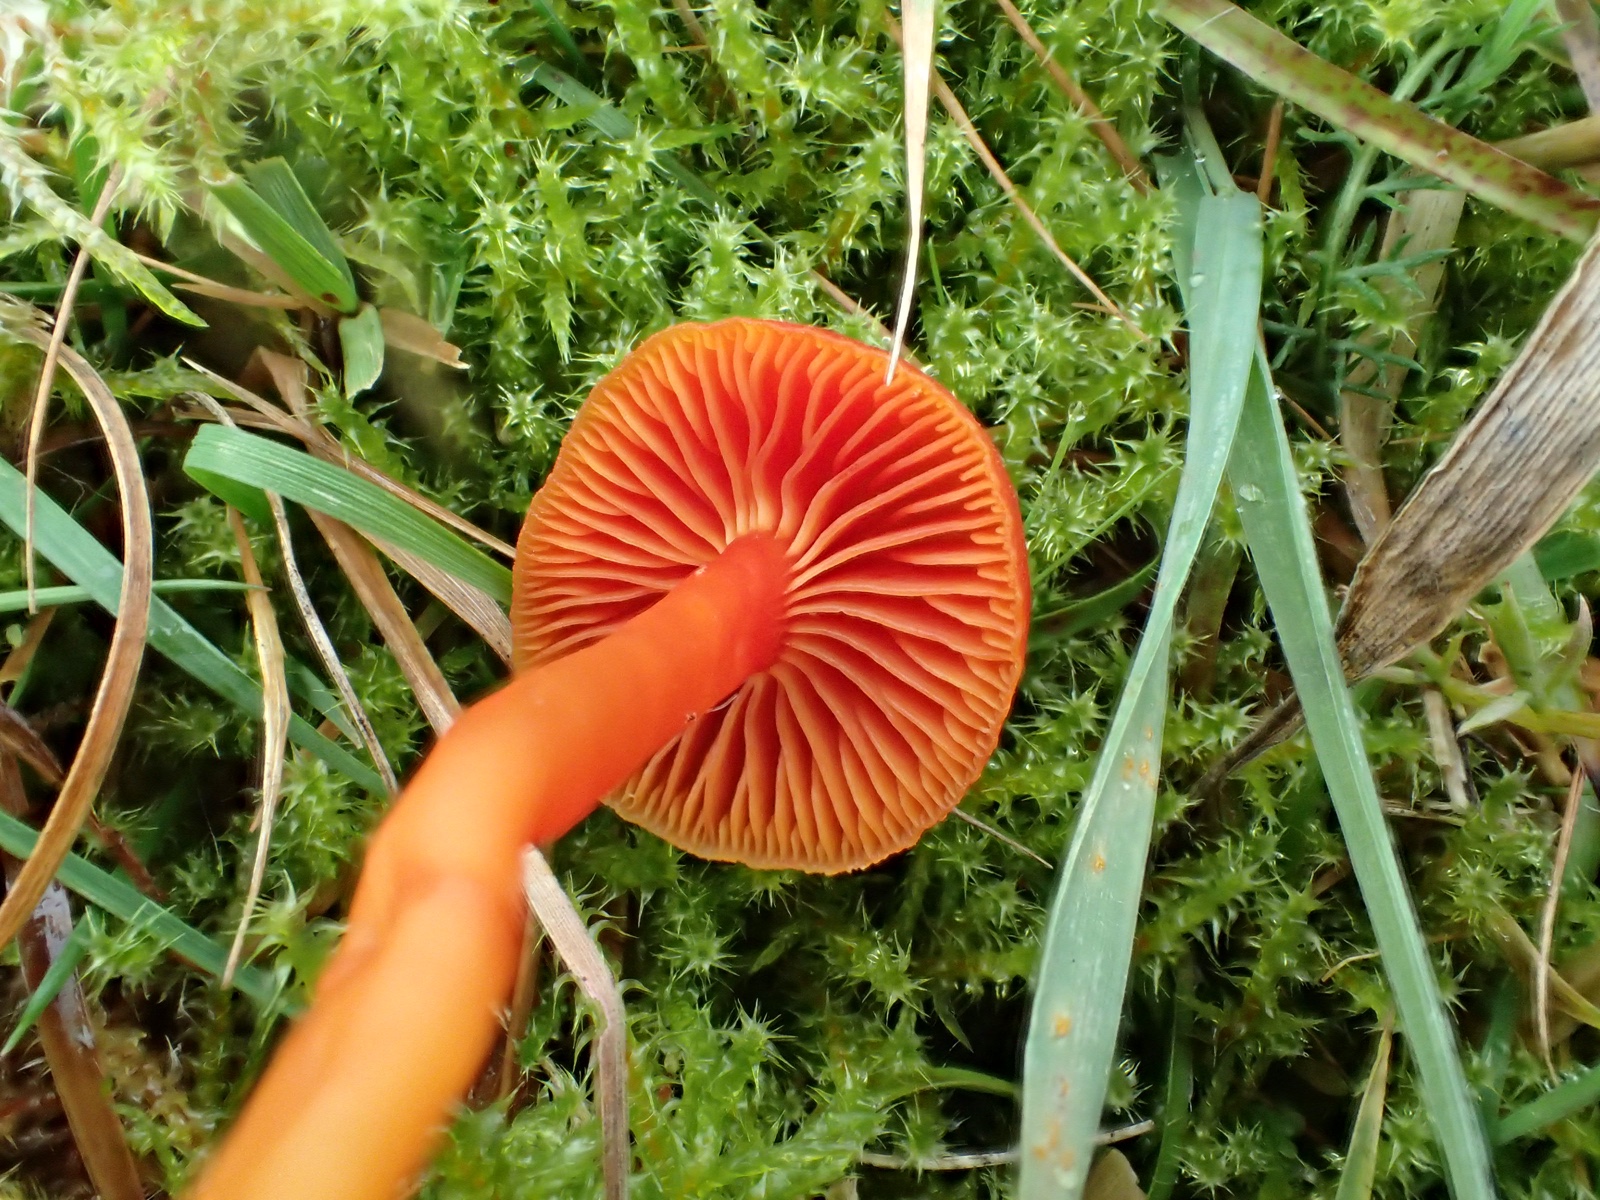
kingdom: Fungi
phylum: Basidiomycota
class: Agaricomycetes
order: Agaricales
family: Hygrophoraceae
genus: Hygrocybe
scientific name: Hygrocybe miniata
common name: mønje-vokshat
